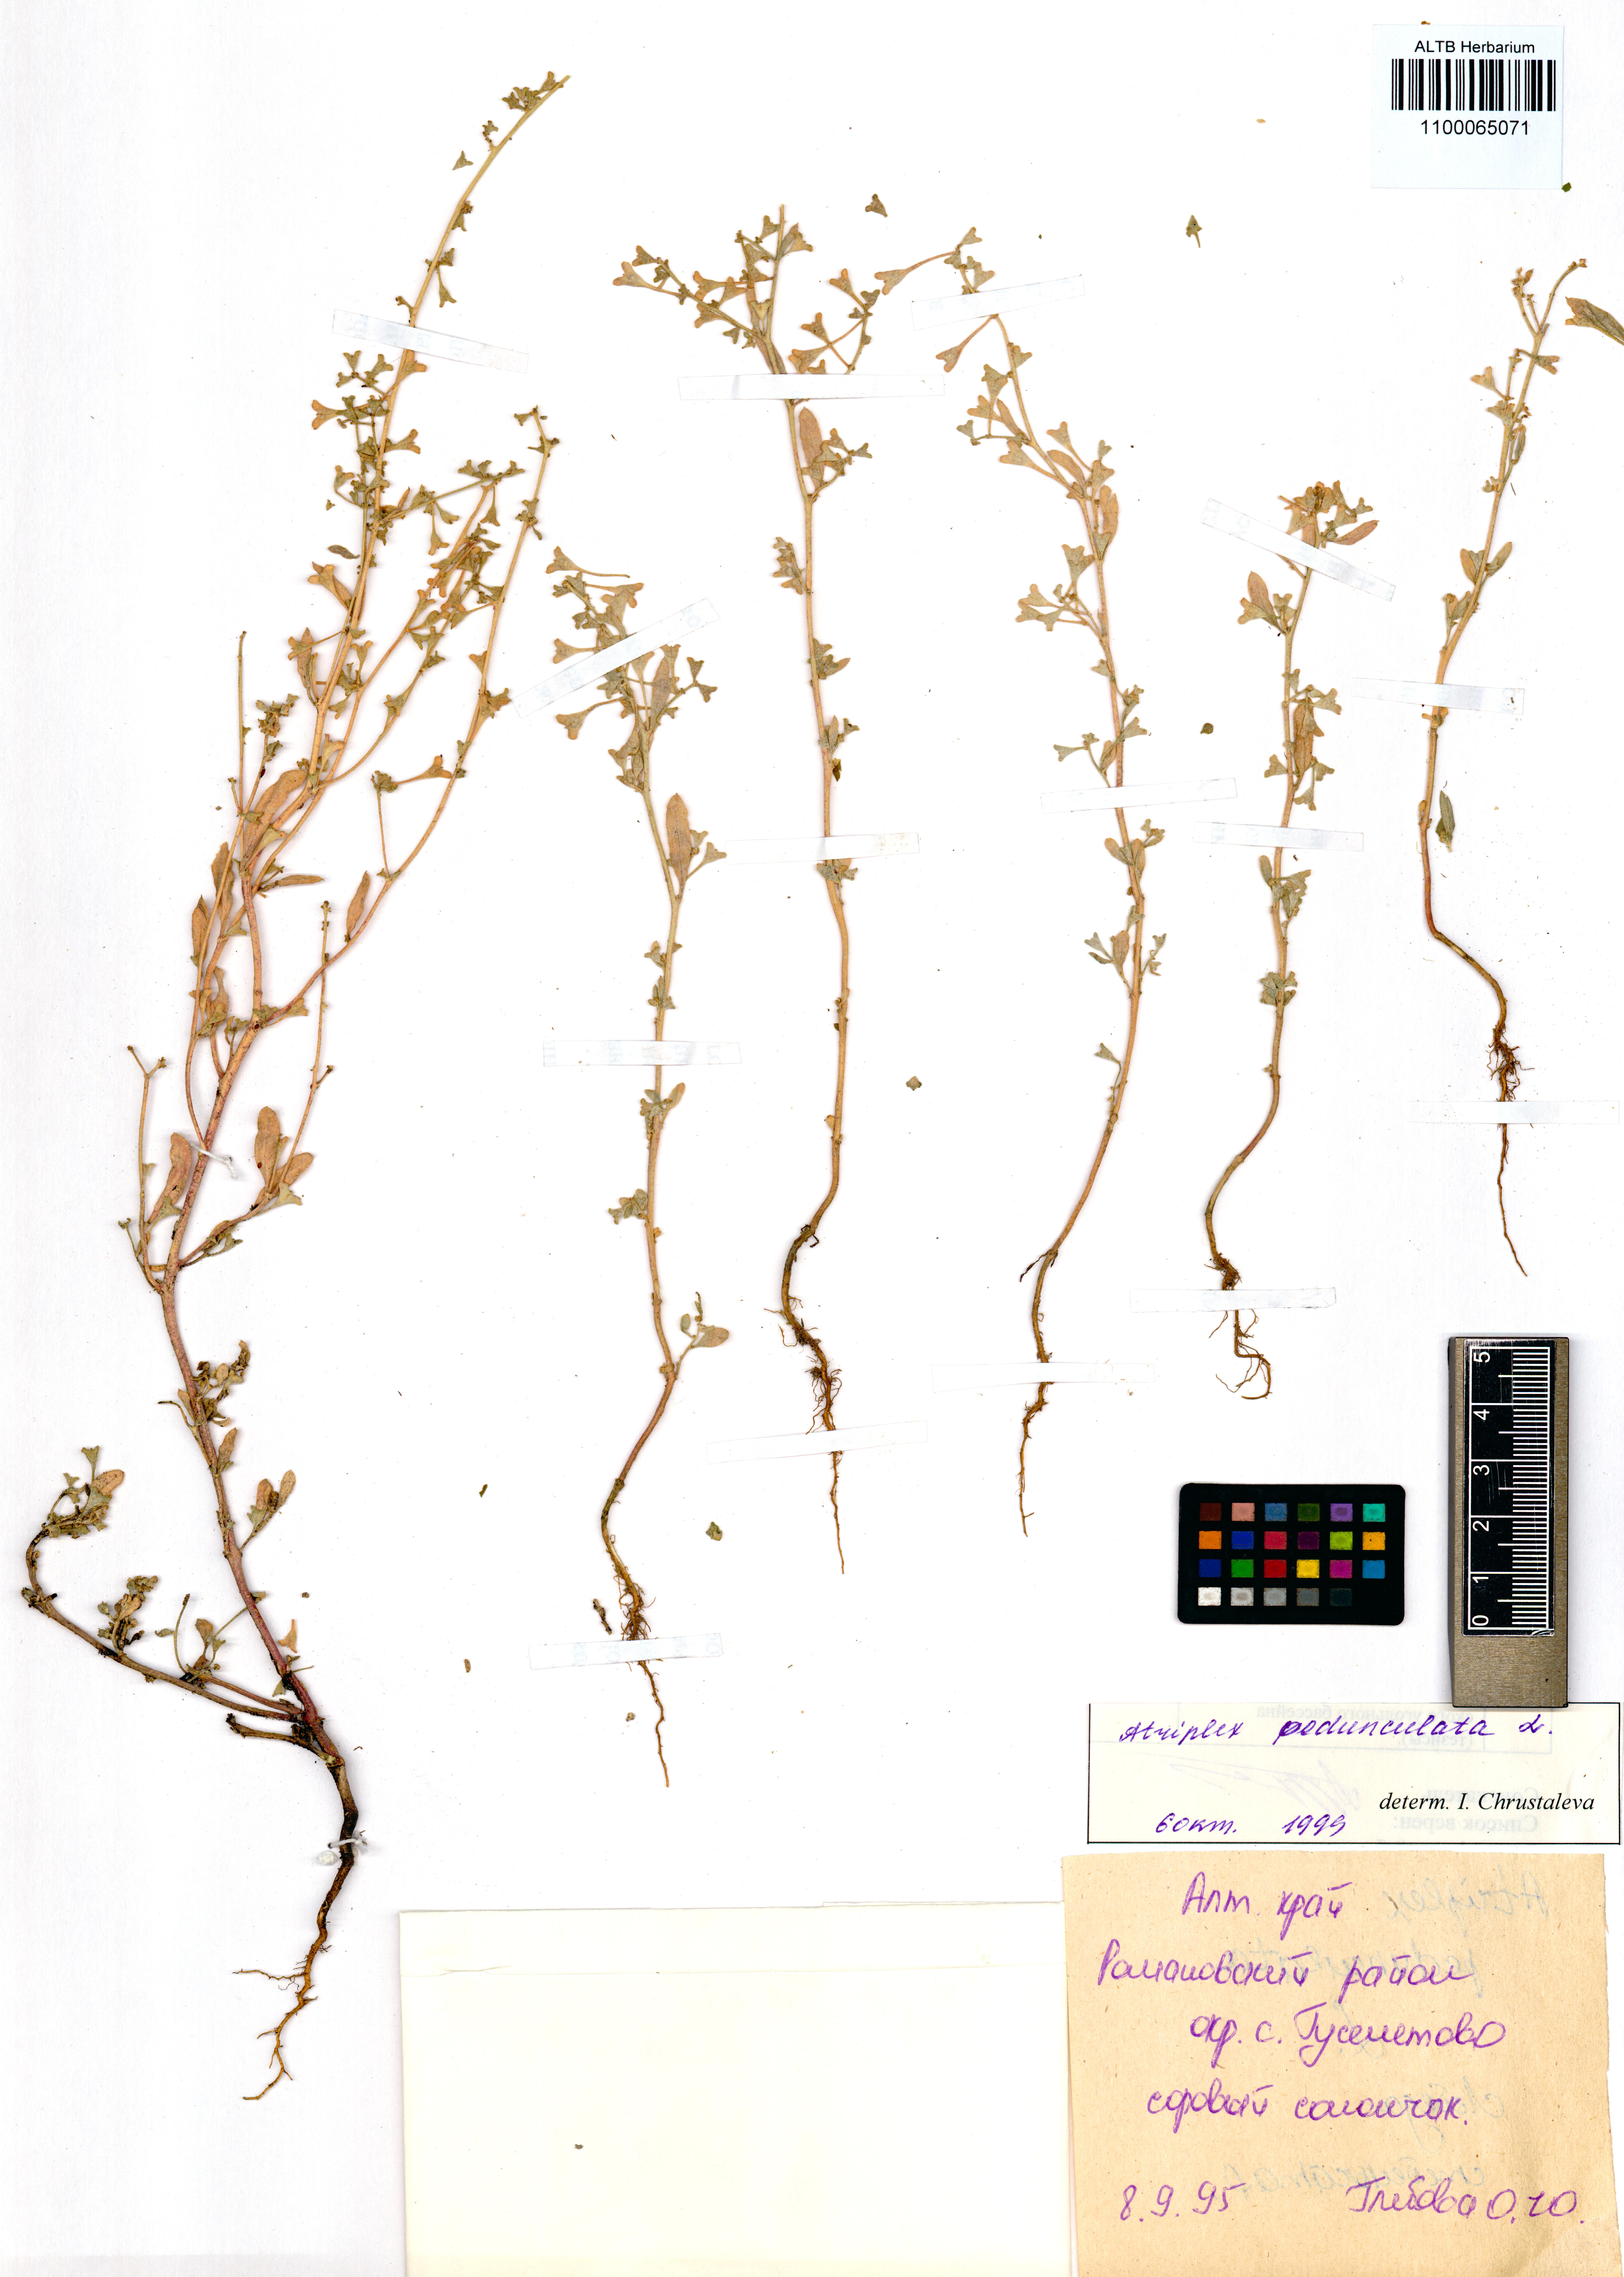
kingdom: Plantae
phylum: Tracheophyta
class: Magnoliopsida
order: Caryophyllales
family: Amaranthaceae
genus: Halimione
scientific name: Halimione pedunculata
